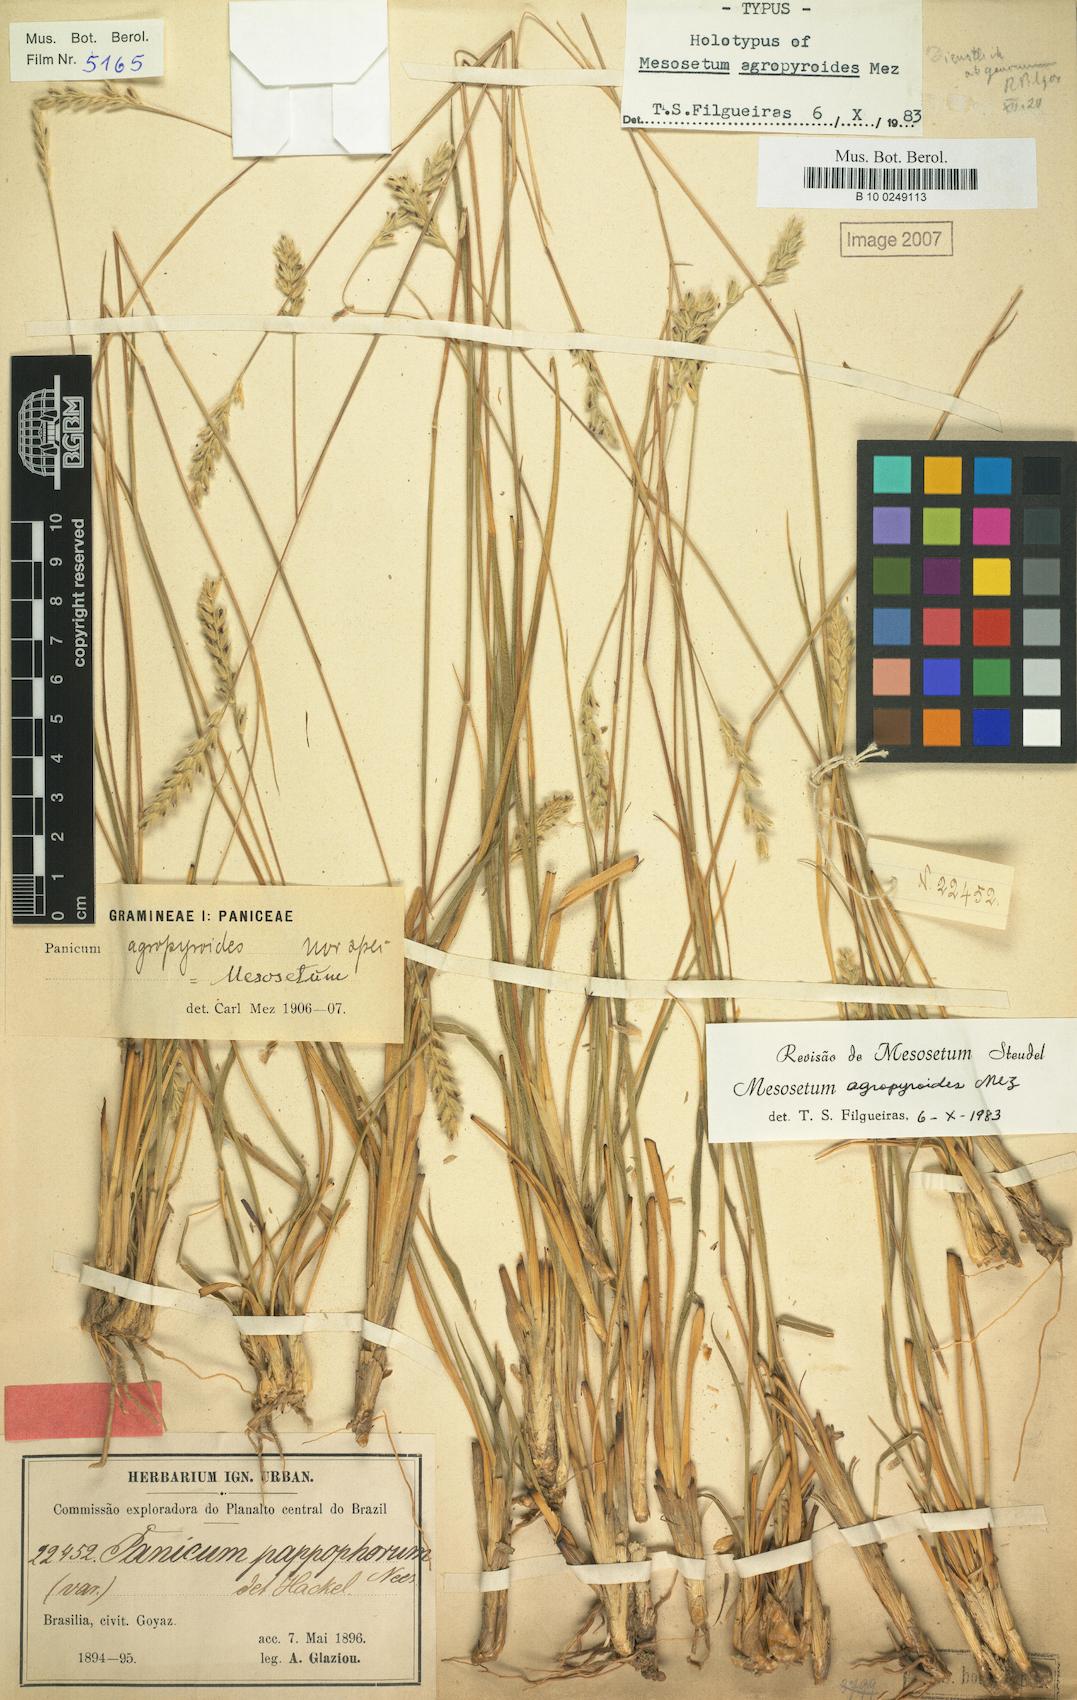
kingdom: Plantae
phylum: Tracheophyta
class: Liliopsida
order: Poales
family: Poaceae
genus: Mesosetum
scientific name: Mesosetum agropyroides
